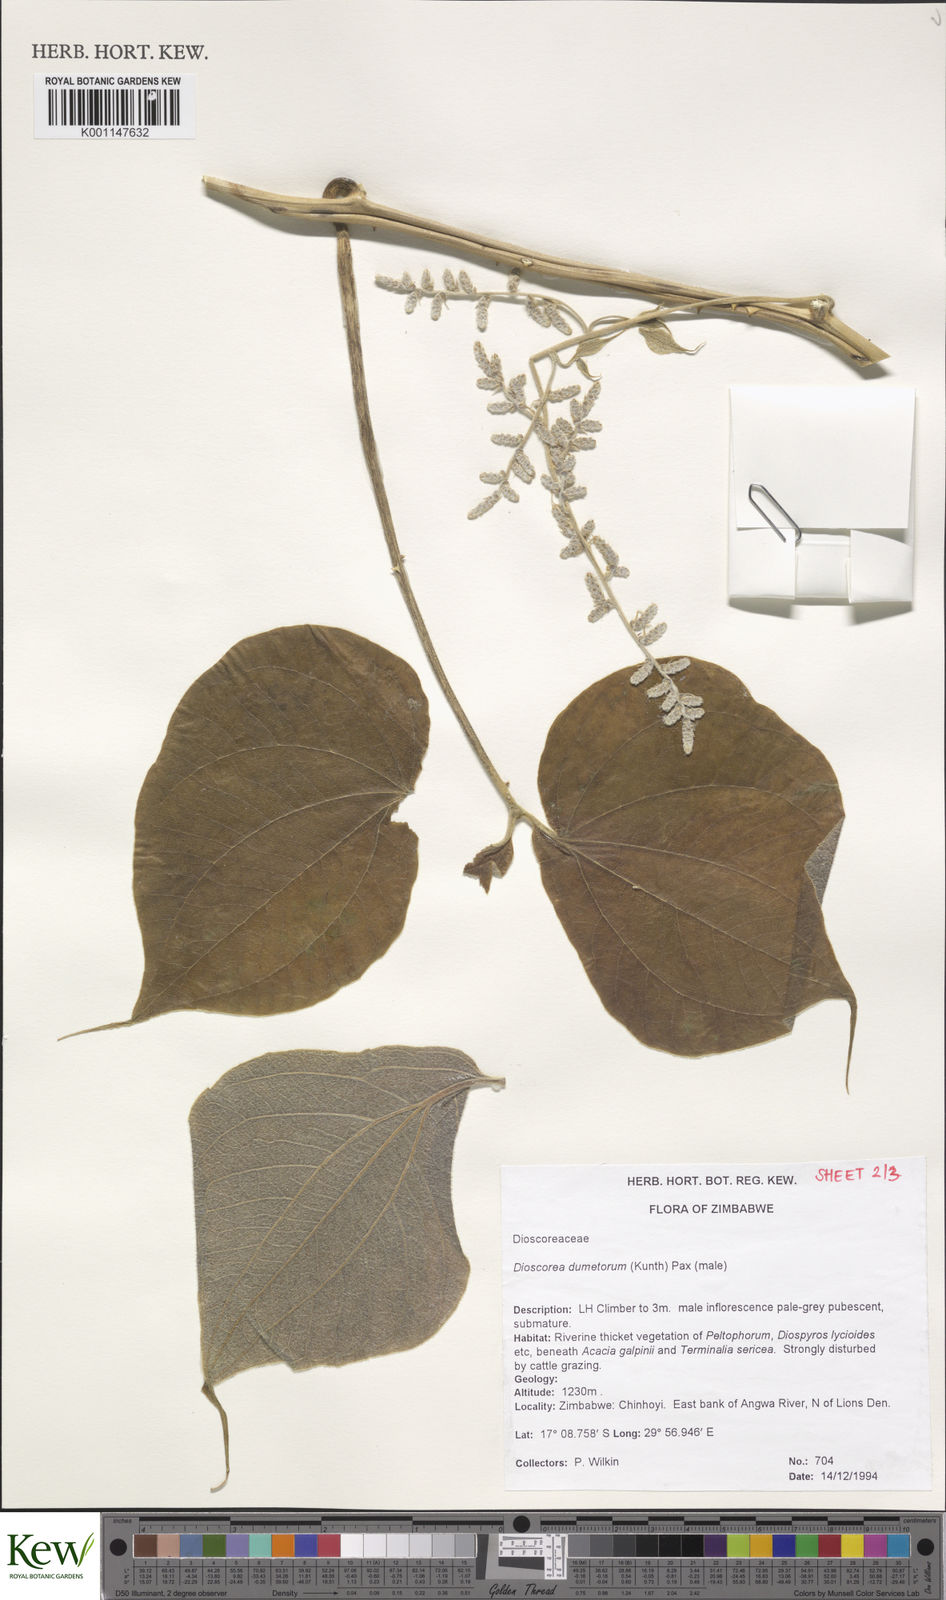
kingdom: Plantae
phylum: Tracheophyta
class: Liliopsida
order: Dioscoreales
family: Dioscoreaceae
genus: Dioscorea
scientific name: Dioscorea dumetorum
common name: African bitter yam
